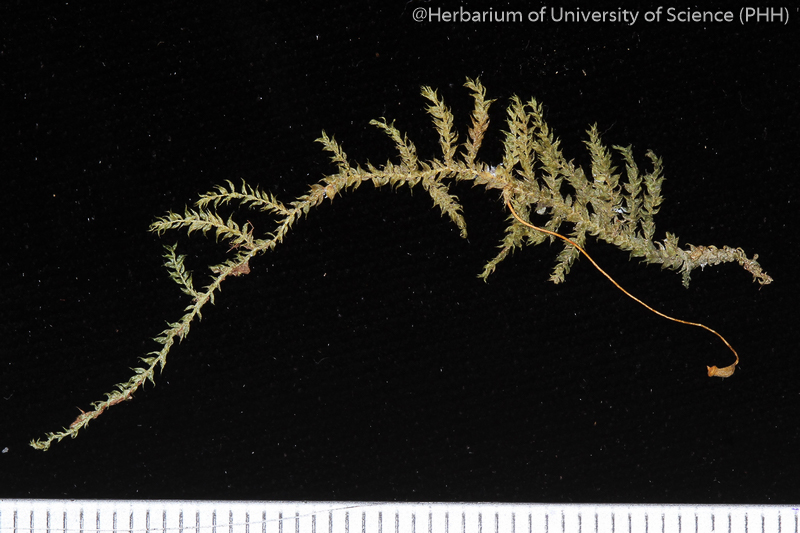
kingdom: Plantae
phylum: Bryophyta
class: Bryopsida
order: Hypnales
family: Hypnaceae
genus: Vesicularia
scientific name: Vesicularia tonkinensis
